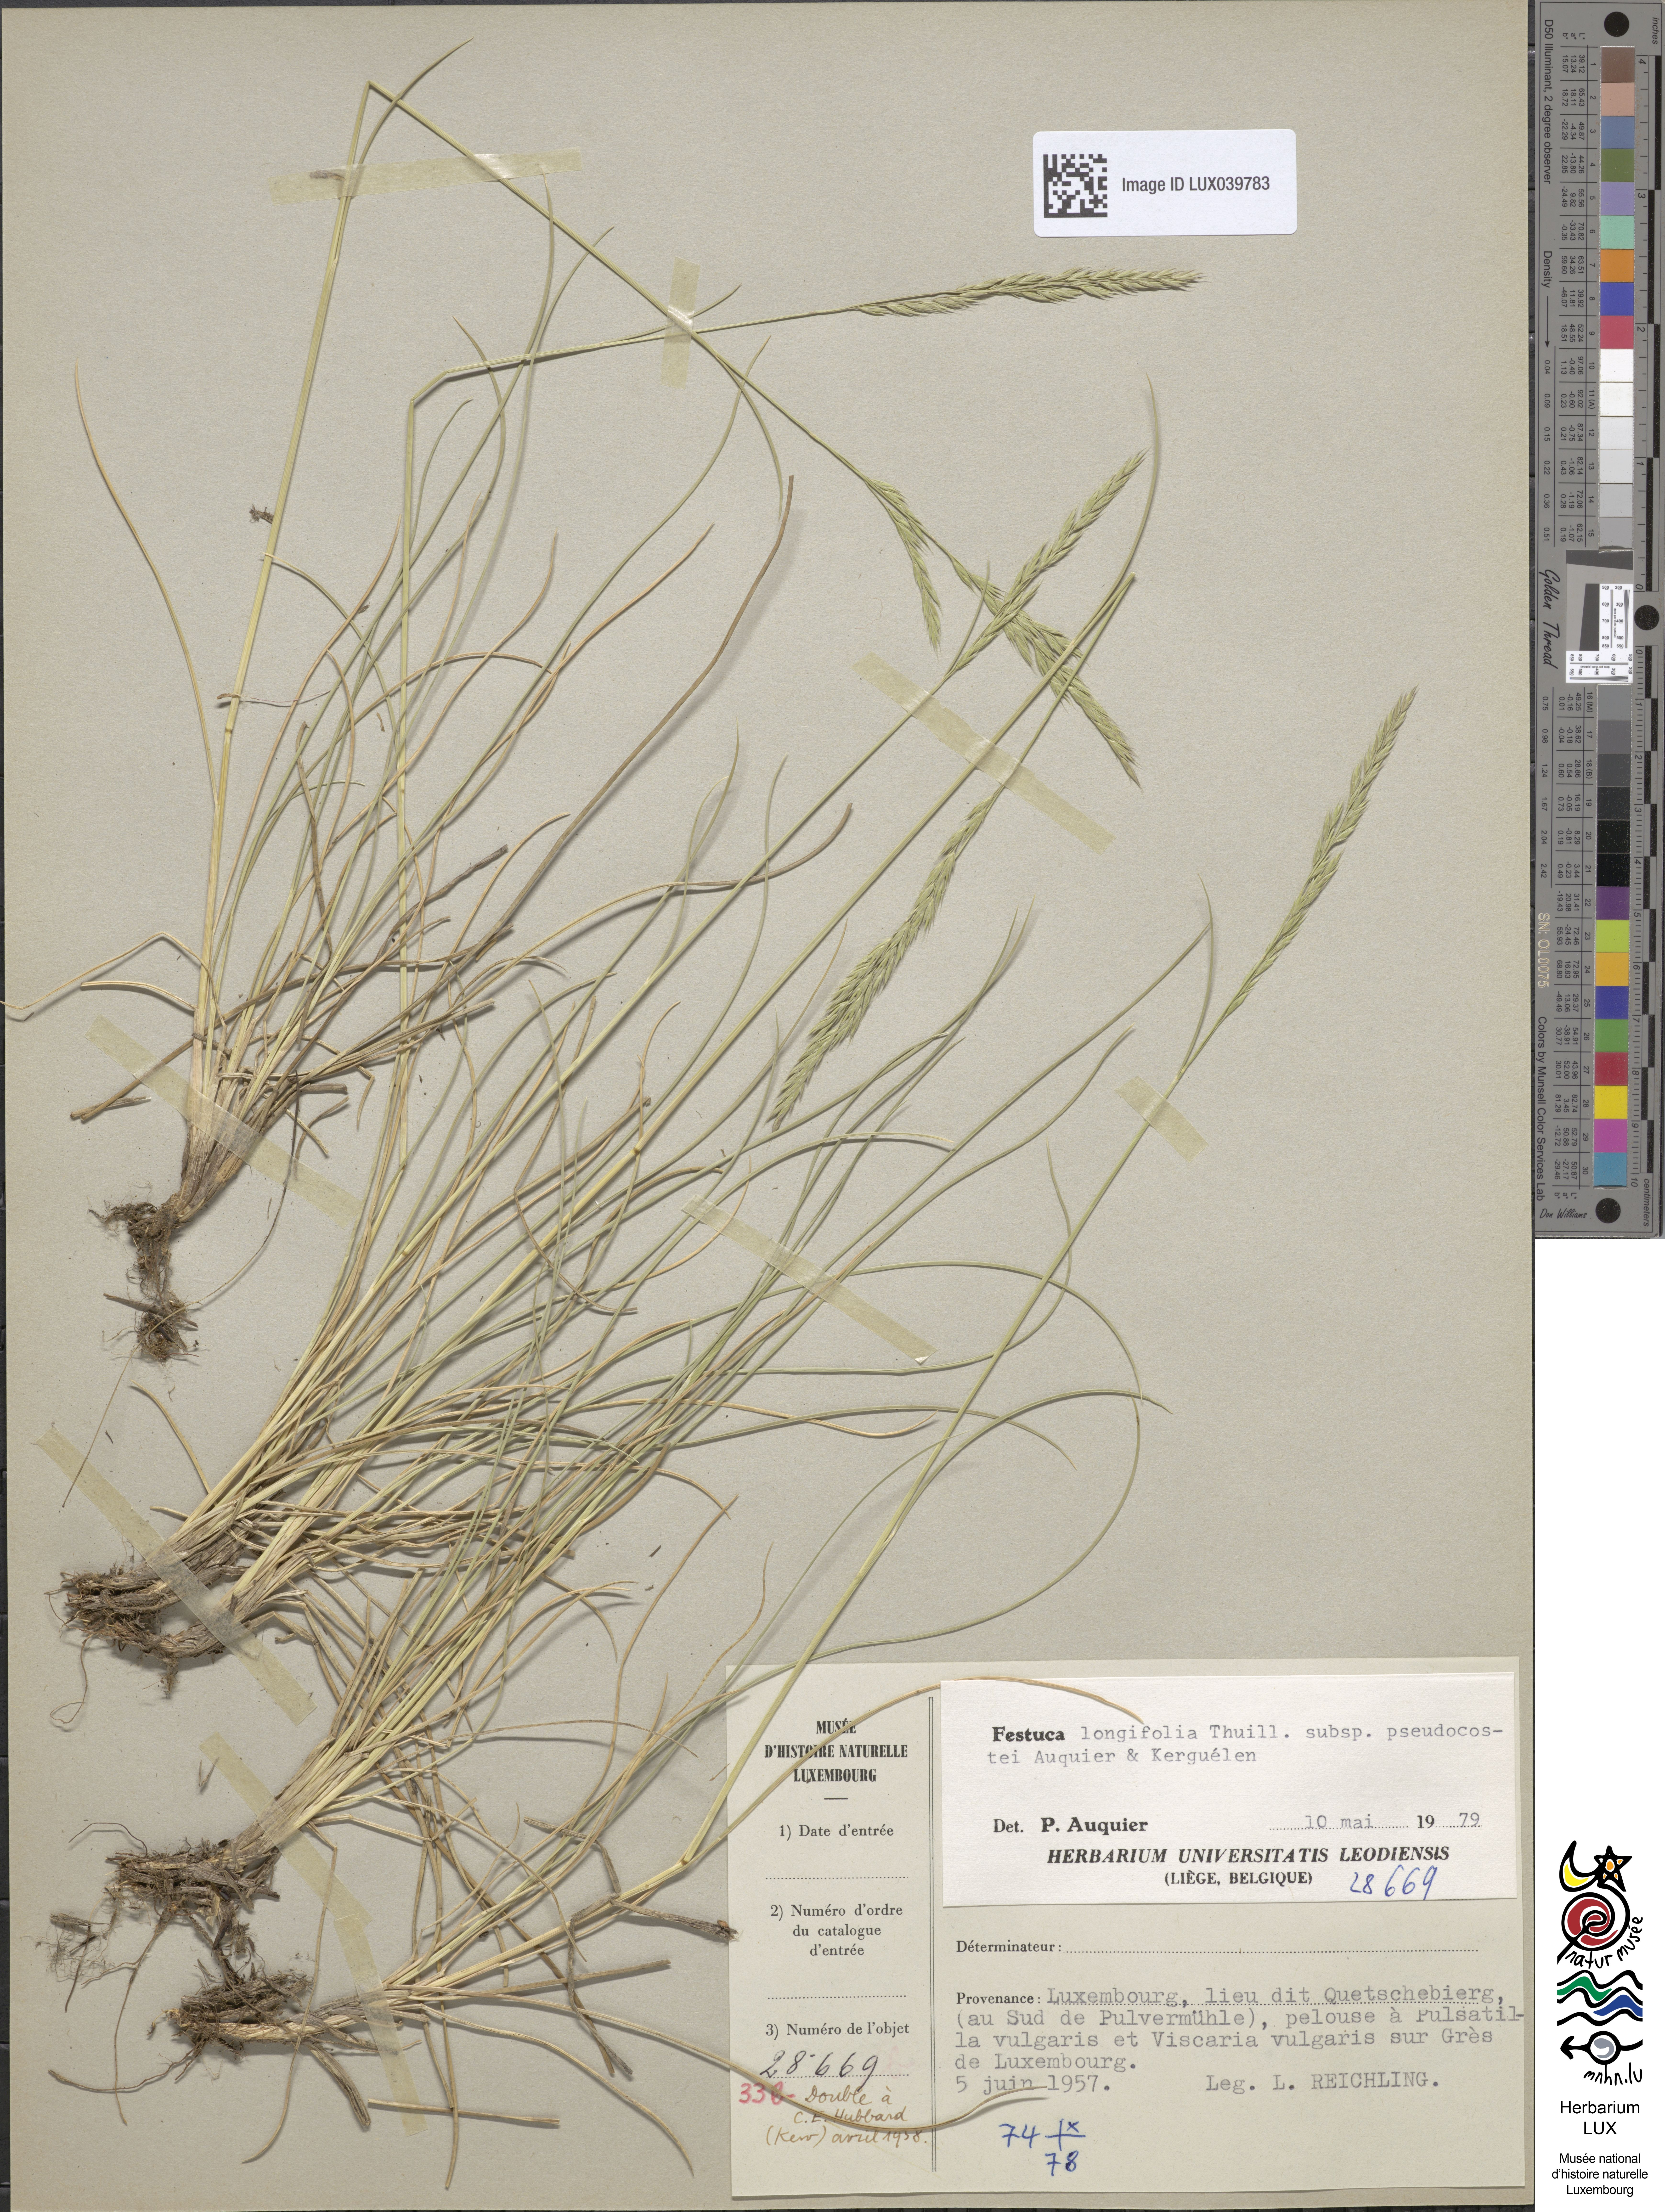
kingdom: Plantae
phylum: Tracheophyta
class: Liliopsida
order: Poales
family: Poaceae
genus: Festuca
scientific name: Festuca longifolia
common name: Blue fescue
